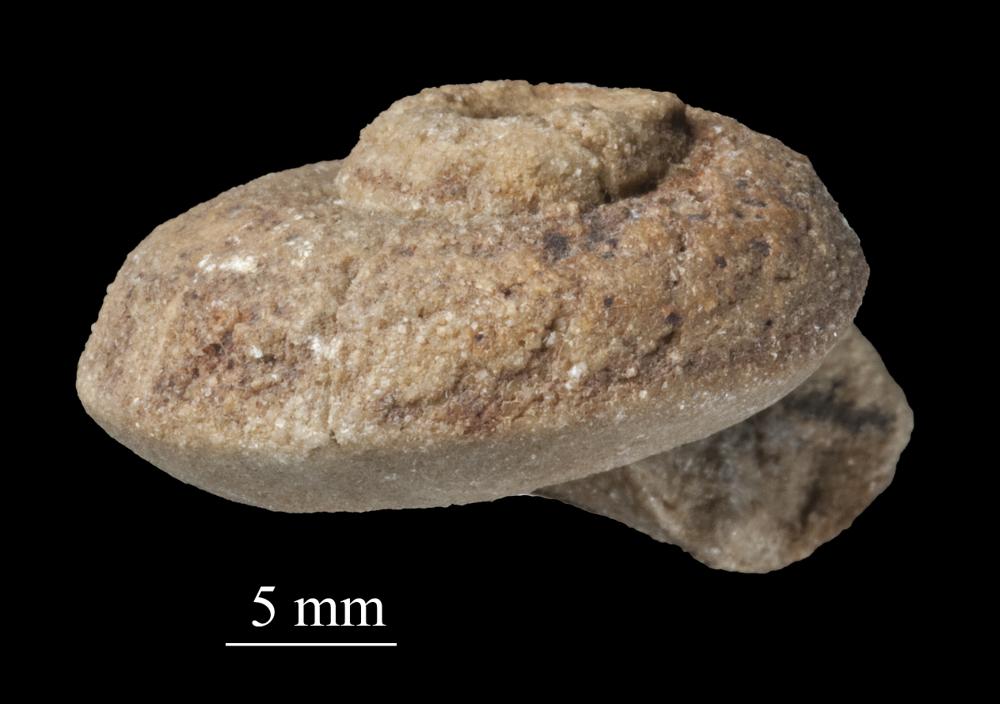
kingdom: Animalia
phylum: Mollusca
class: Gastropoda
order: Pleurotomariida
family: Phymatopleuridae
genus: Worthenia
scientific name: Worthenia
